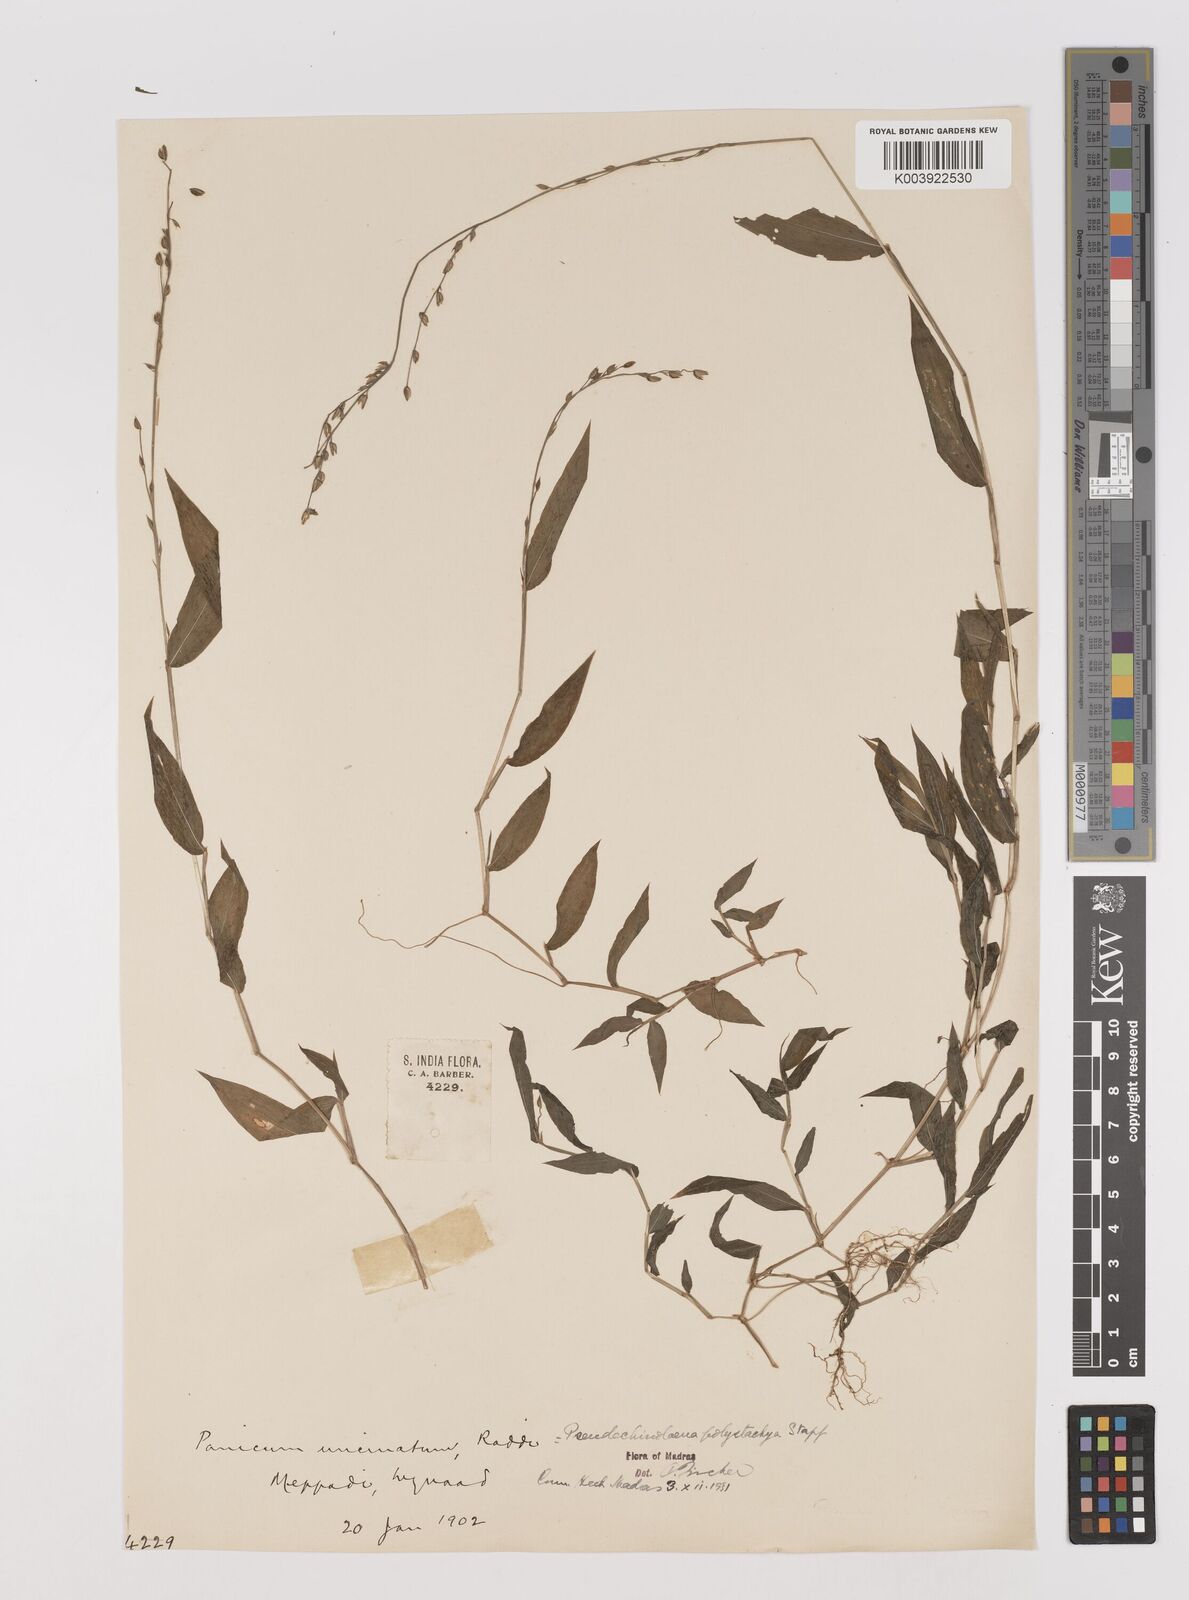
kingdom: Plantae
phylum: Tracheophyta
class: Liliopsida
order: Poales
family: Poaceae
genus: Pseudechinolaena
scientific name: Pseudechinolaena polystachya
